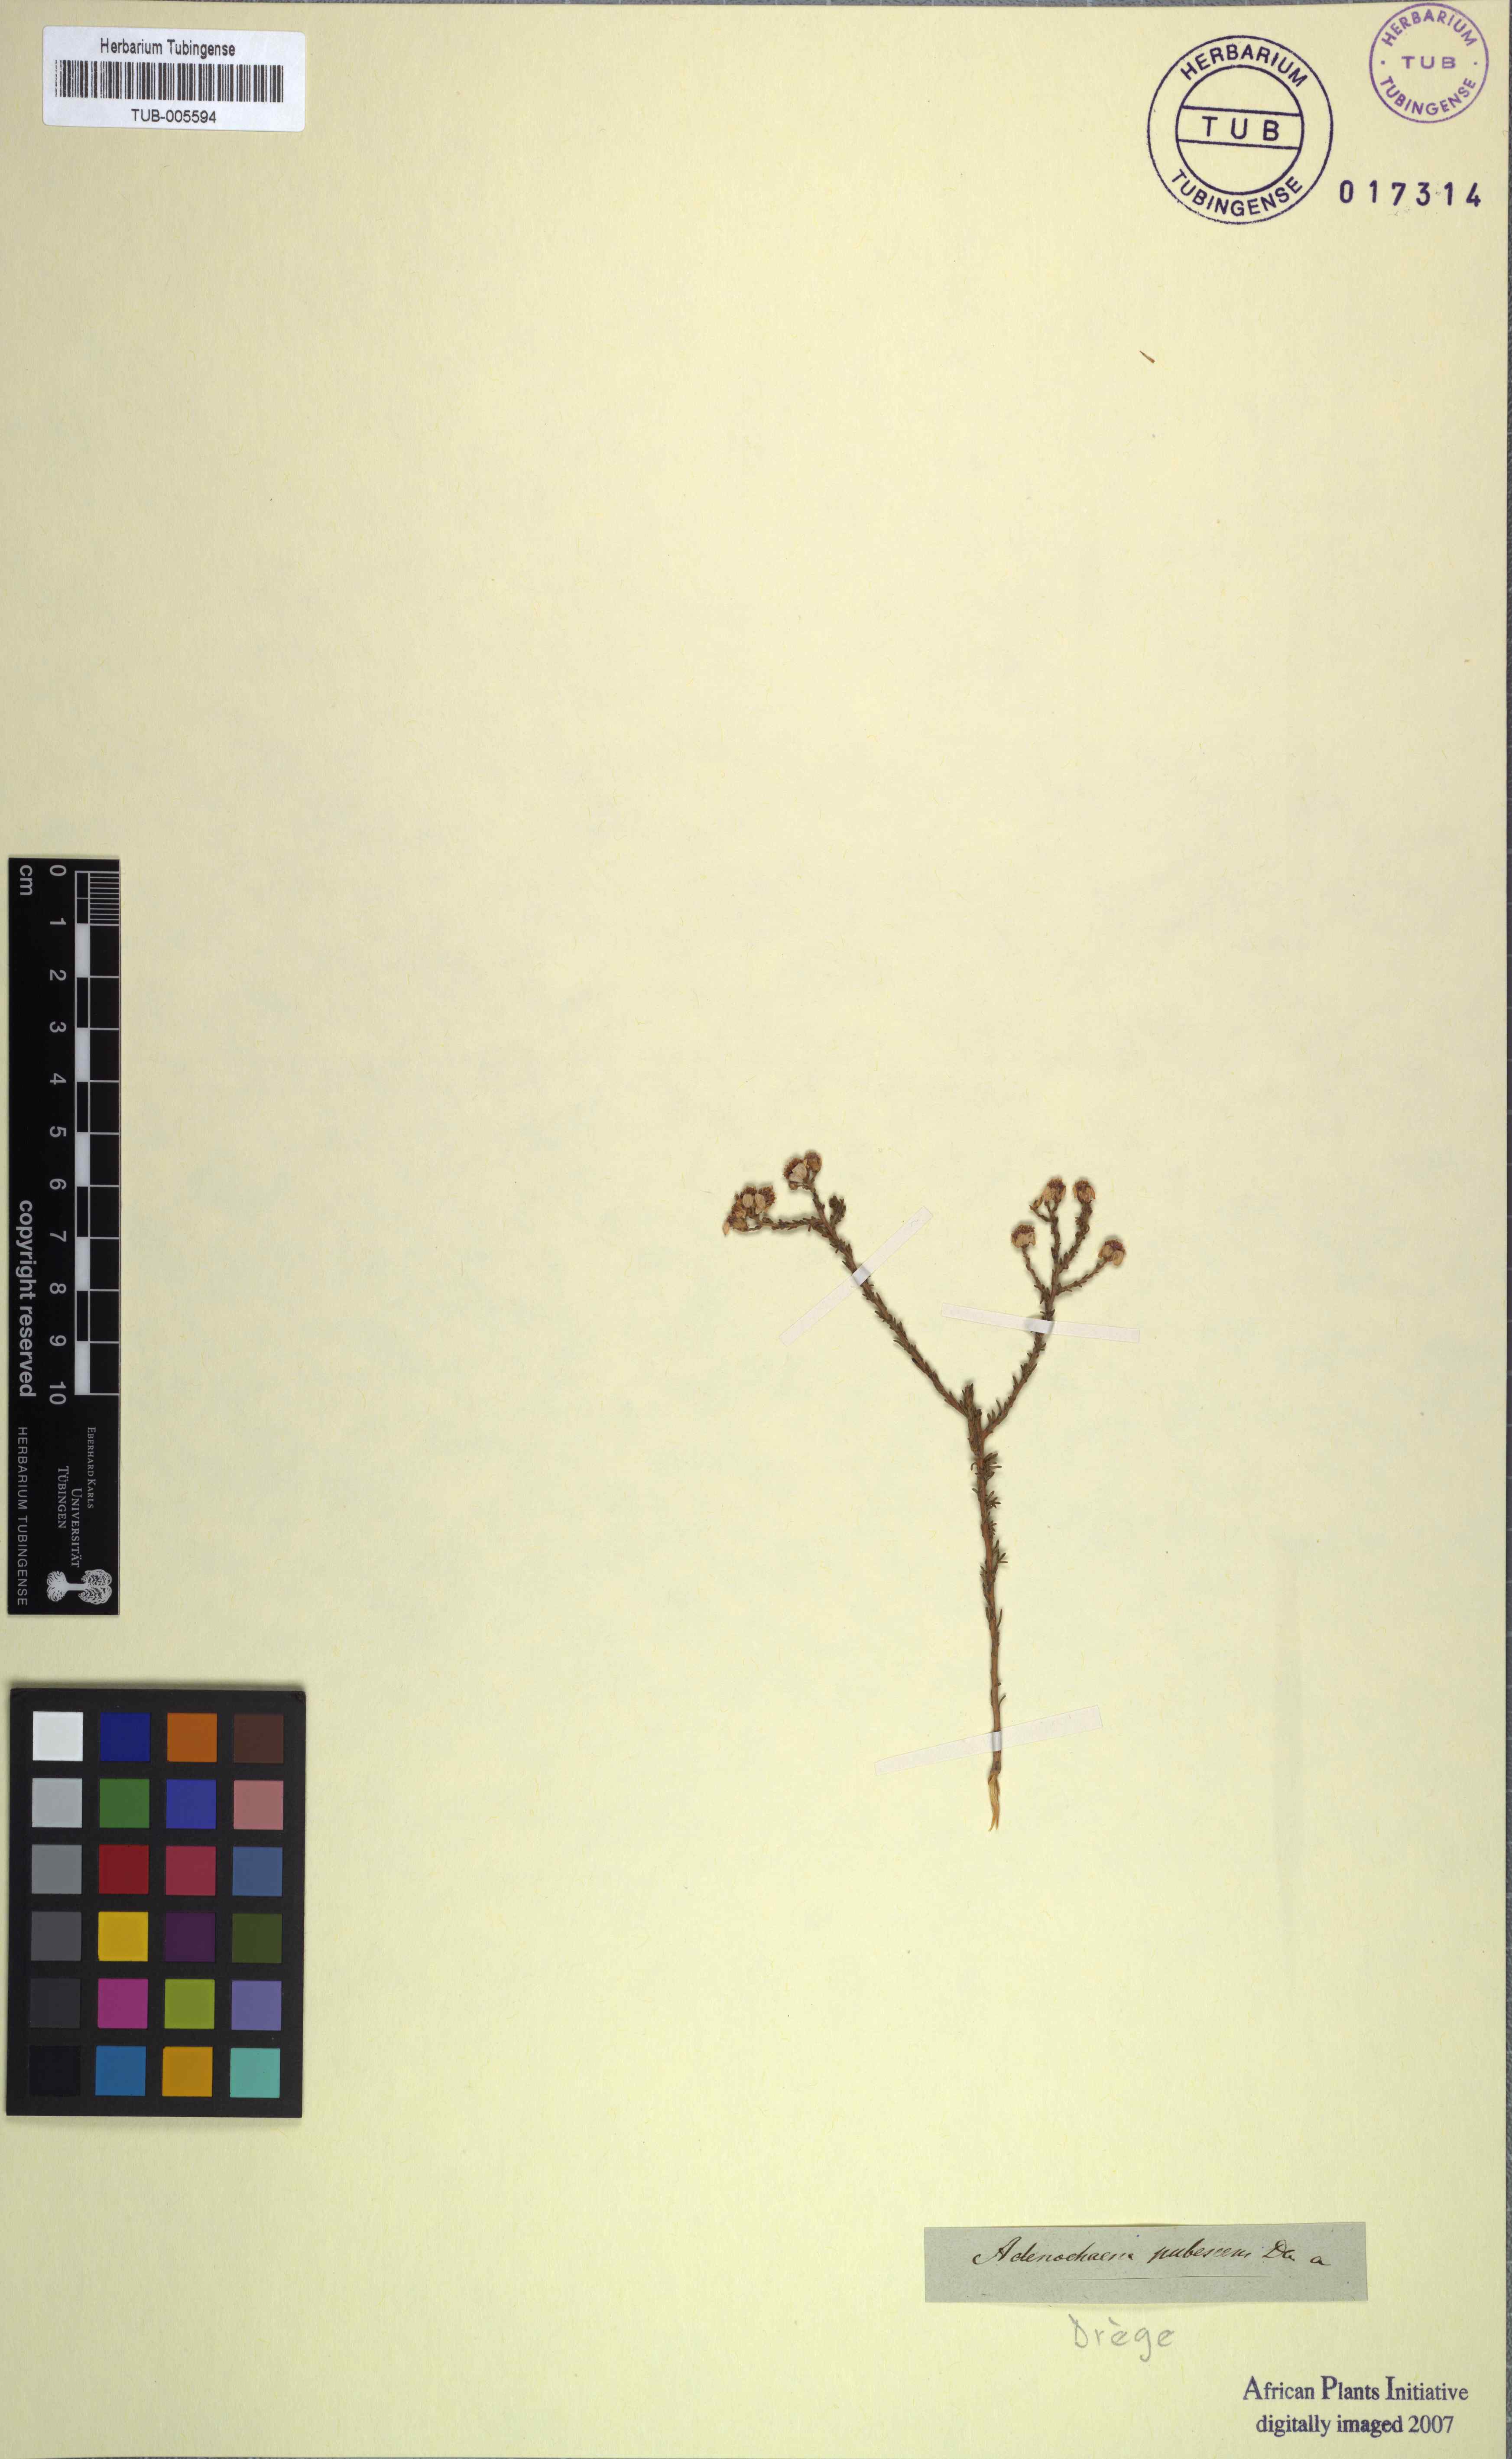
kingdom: Plantae
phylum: Tracheophyta
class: Magnoliopsida
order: Asterales
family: Asteraceae
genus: Phymaspermum
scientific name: Phymaspermum pubescens
